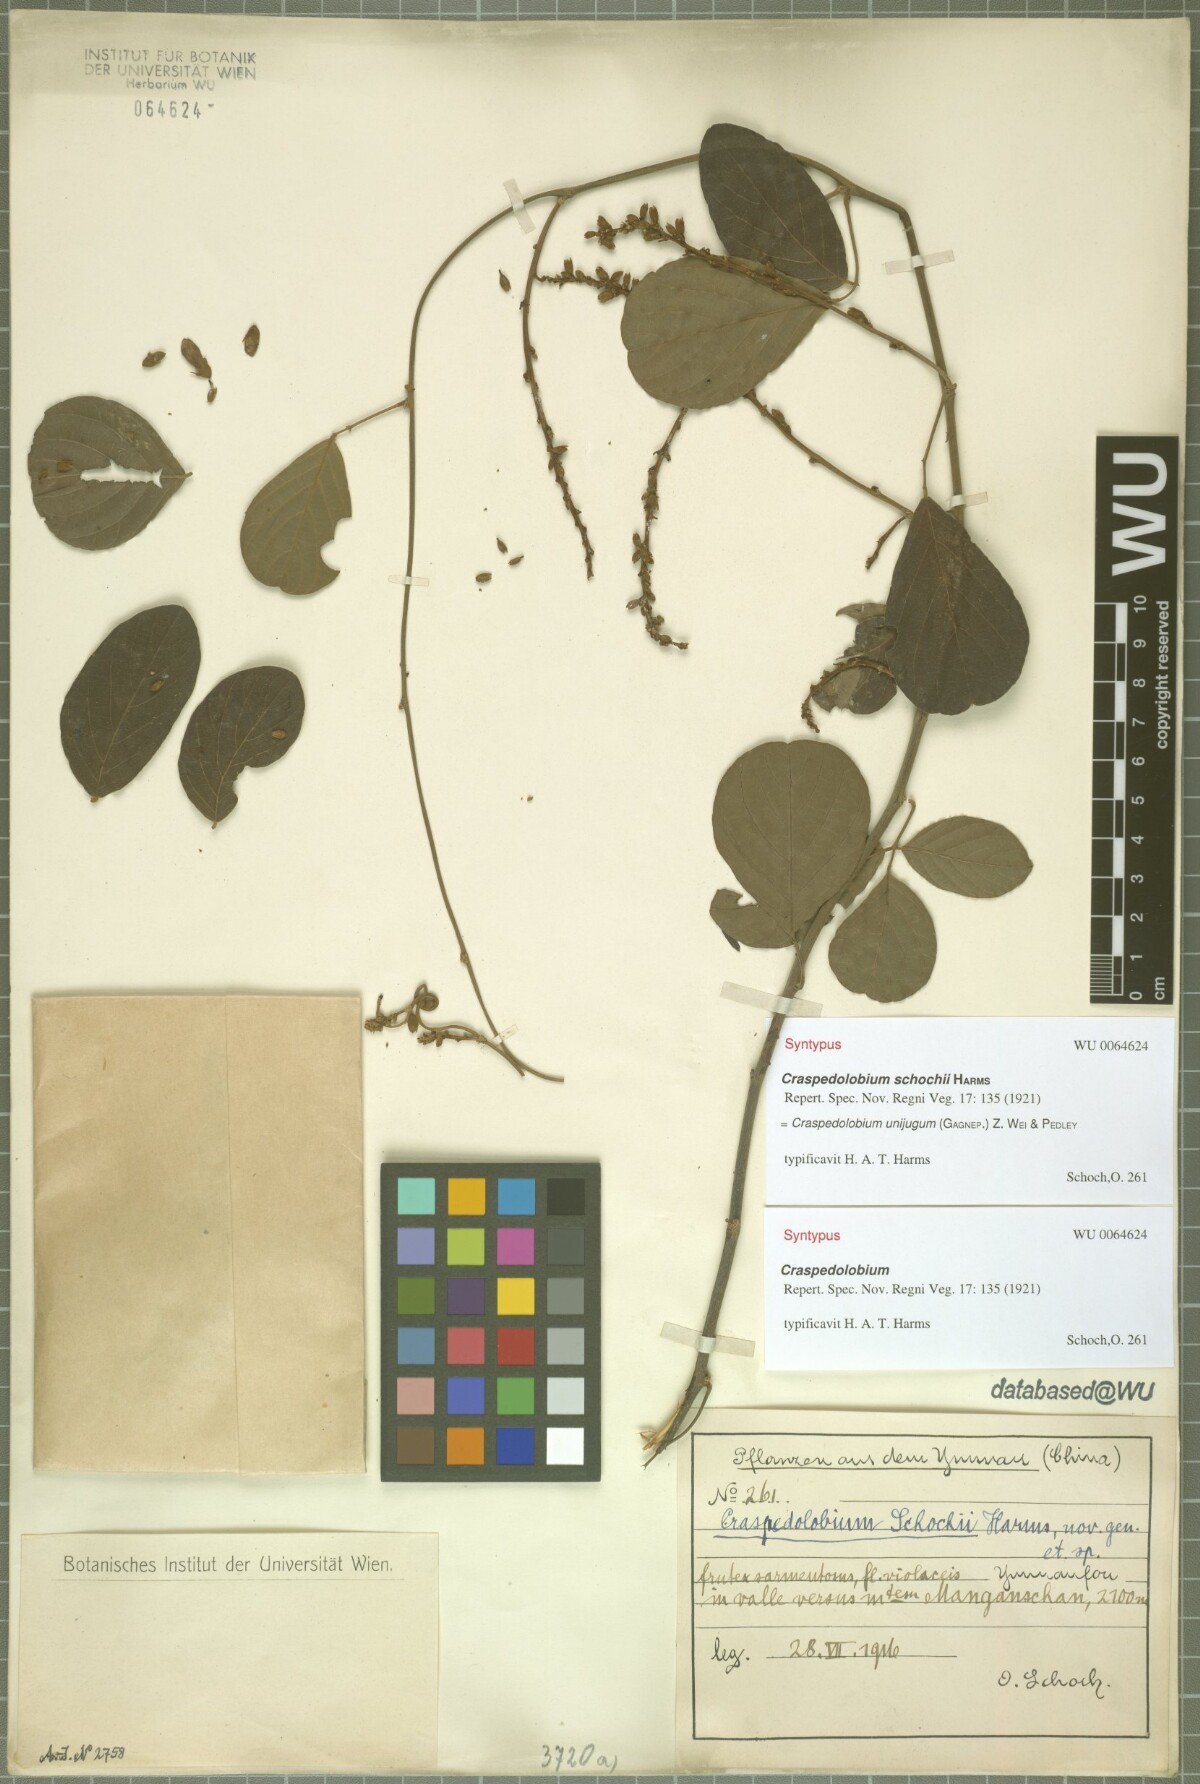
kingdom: Plantae
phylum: Tracheophyta
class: Magnoliopsida
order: Fabales
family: Fabaceae
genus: Craspedolobium
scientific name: Craspedolobium unijugum
